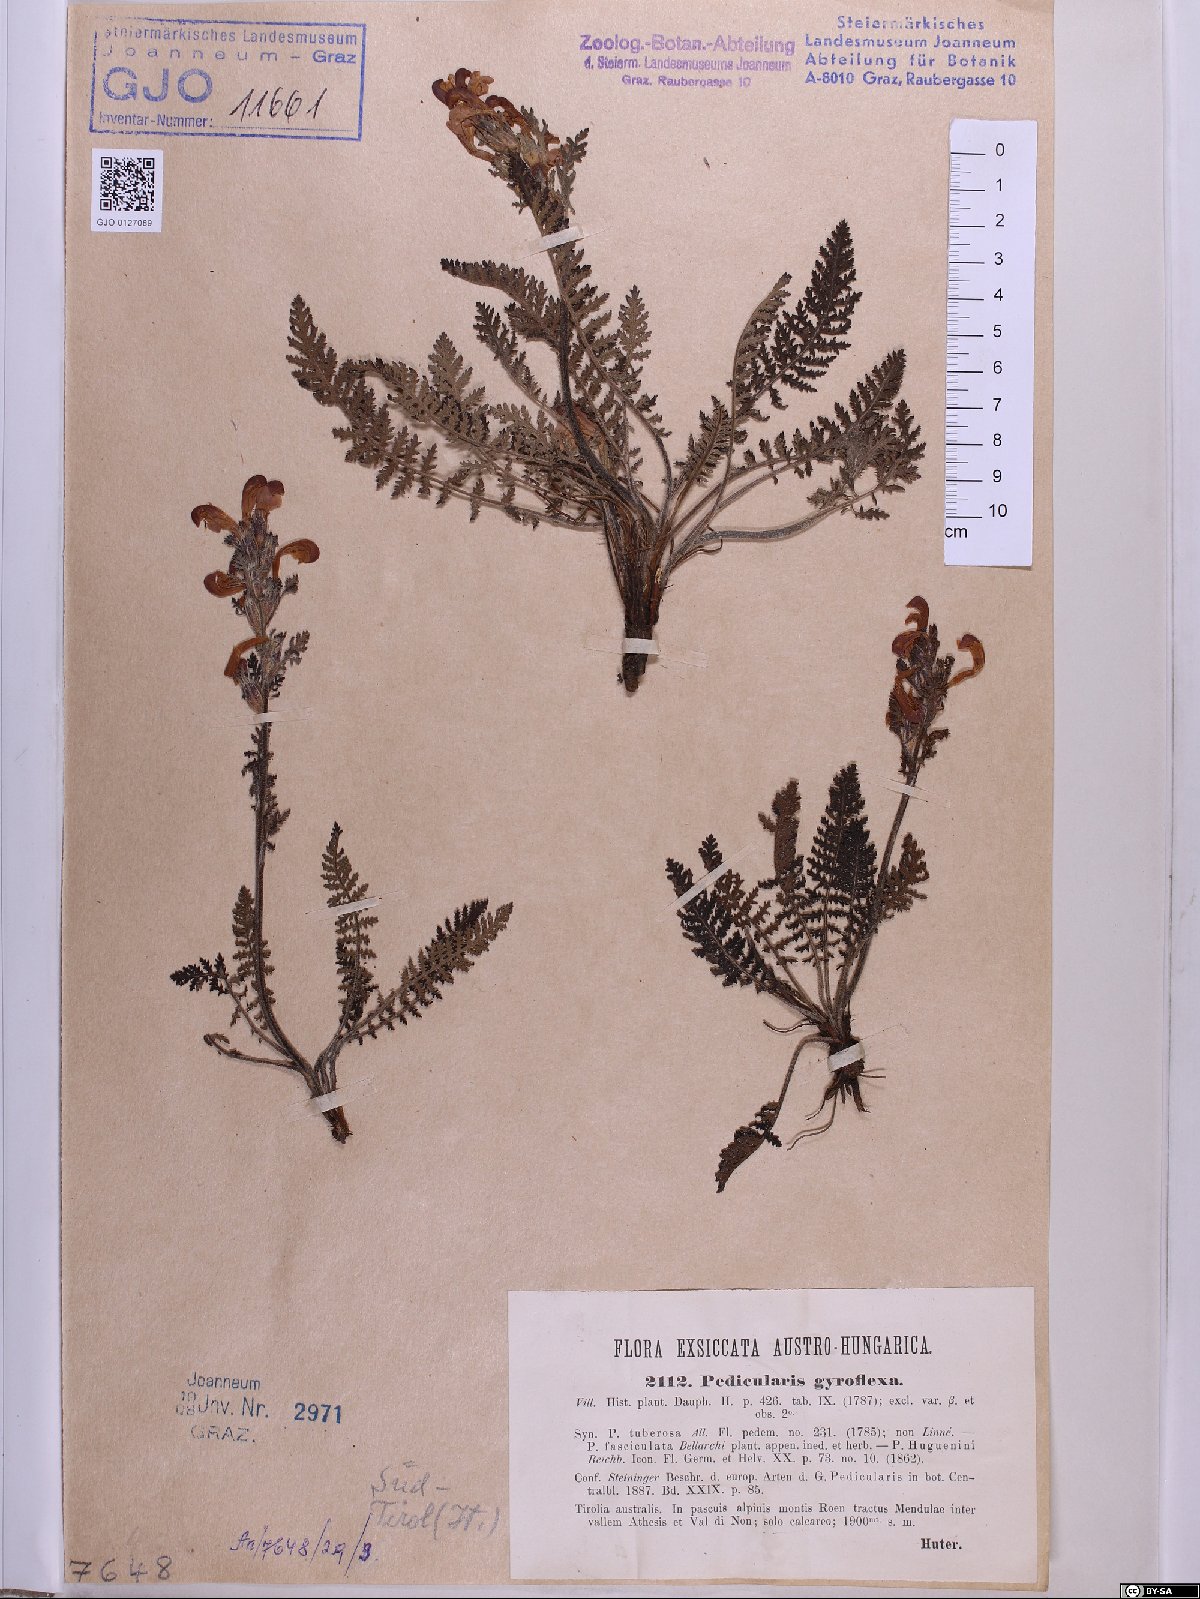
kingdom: Plantae
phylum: Tracheophyta
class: Magnoliopsida
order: Lamiales
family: Orobanchaceae
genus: Pedicularis
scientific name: Pedicularis gyroflexa
